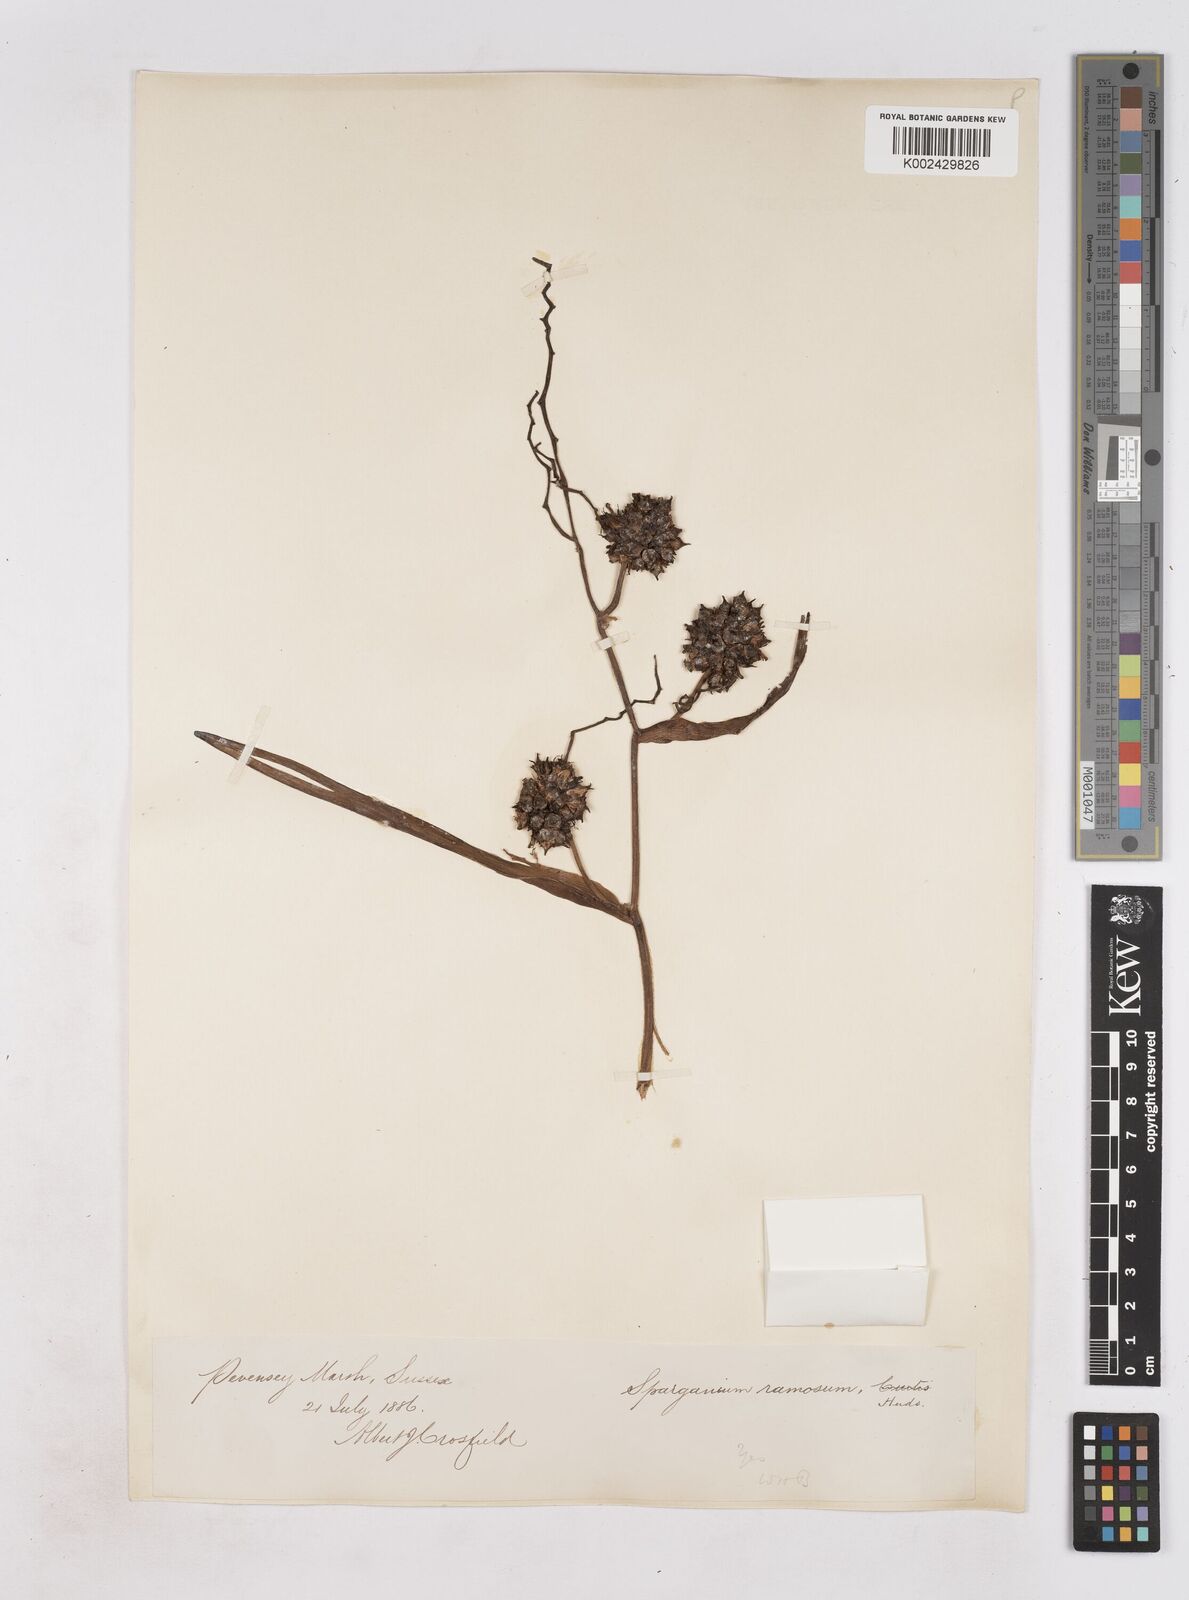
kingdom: Plantae
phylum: Tracheophyta
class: Liliopsida
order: Poales
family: Typhaceae
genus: Sparganium
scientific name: Sparganium erectum
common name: Branched bur-reed
